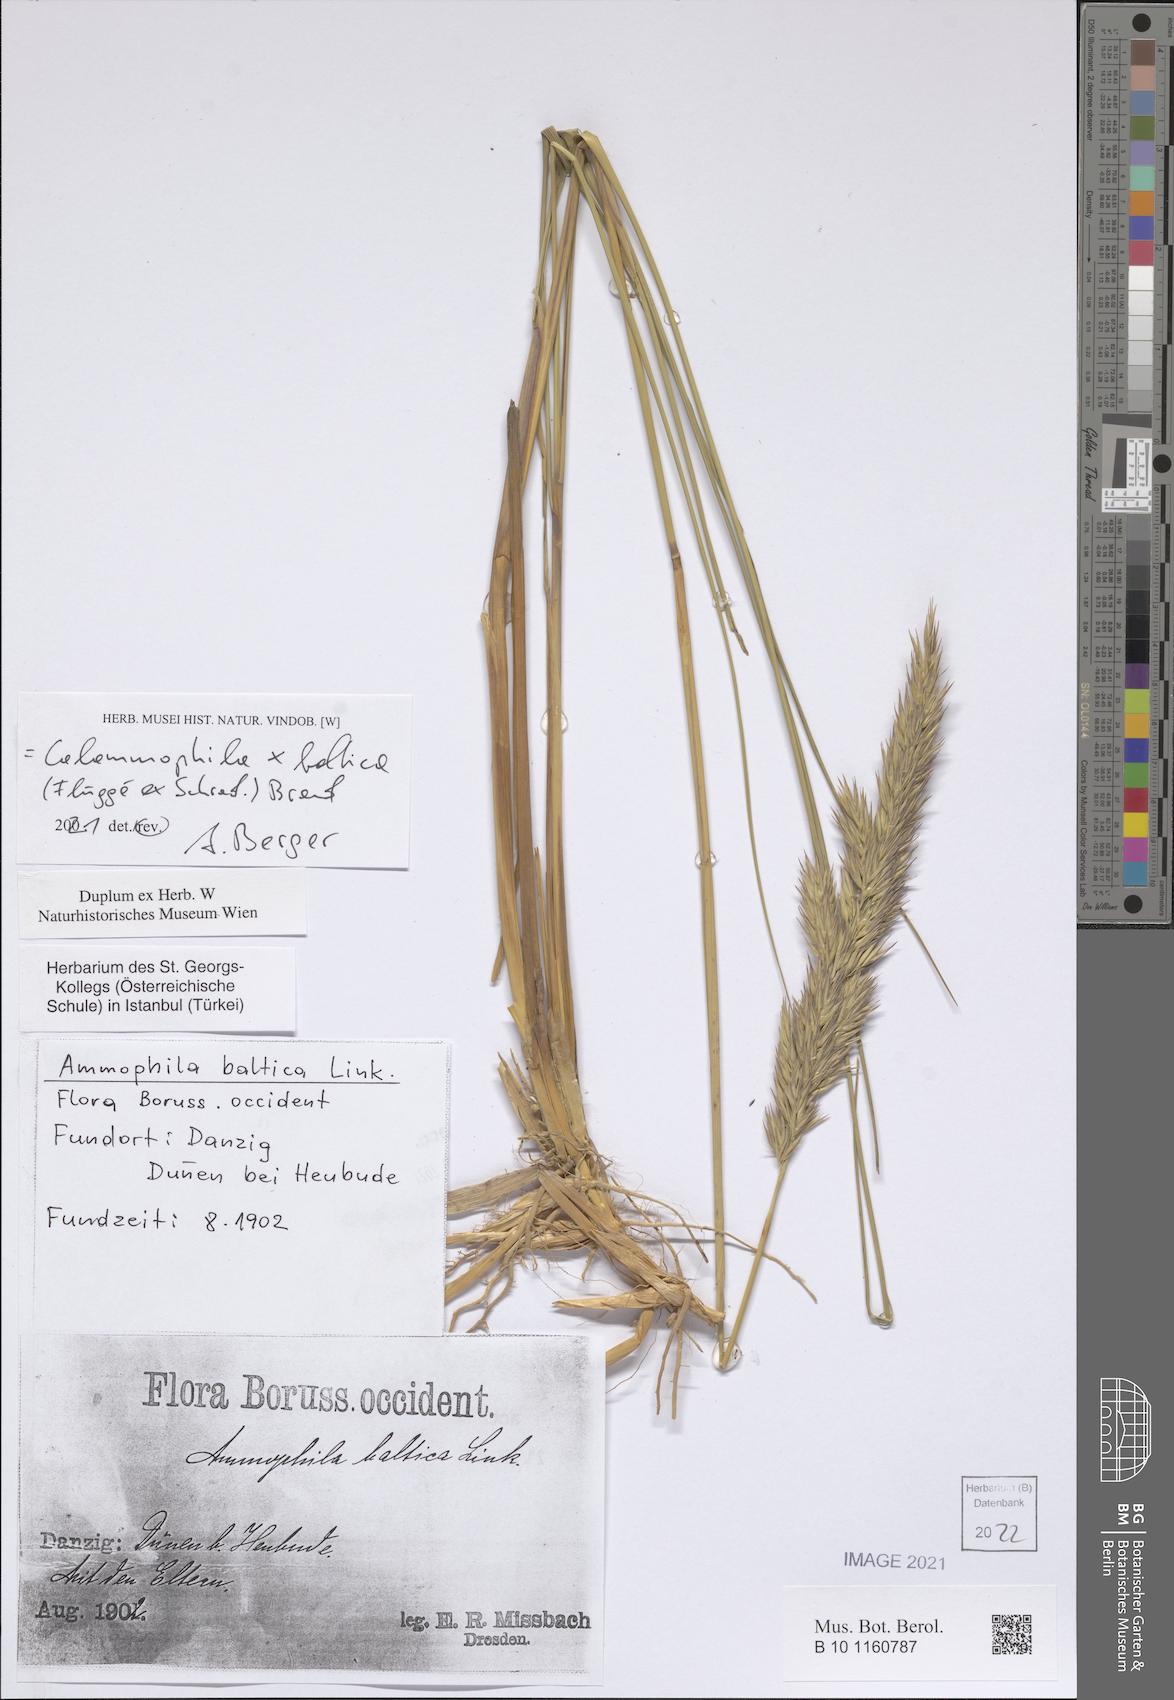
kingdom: Plantae
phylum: Tracheophyta
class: Liliopsida
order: Poales
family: Poaceae
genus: Calamagrostis
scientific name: Calamagrostis baltica
